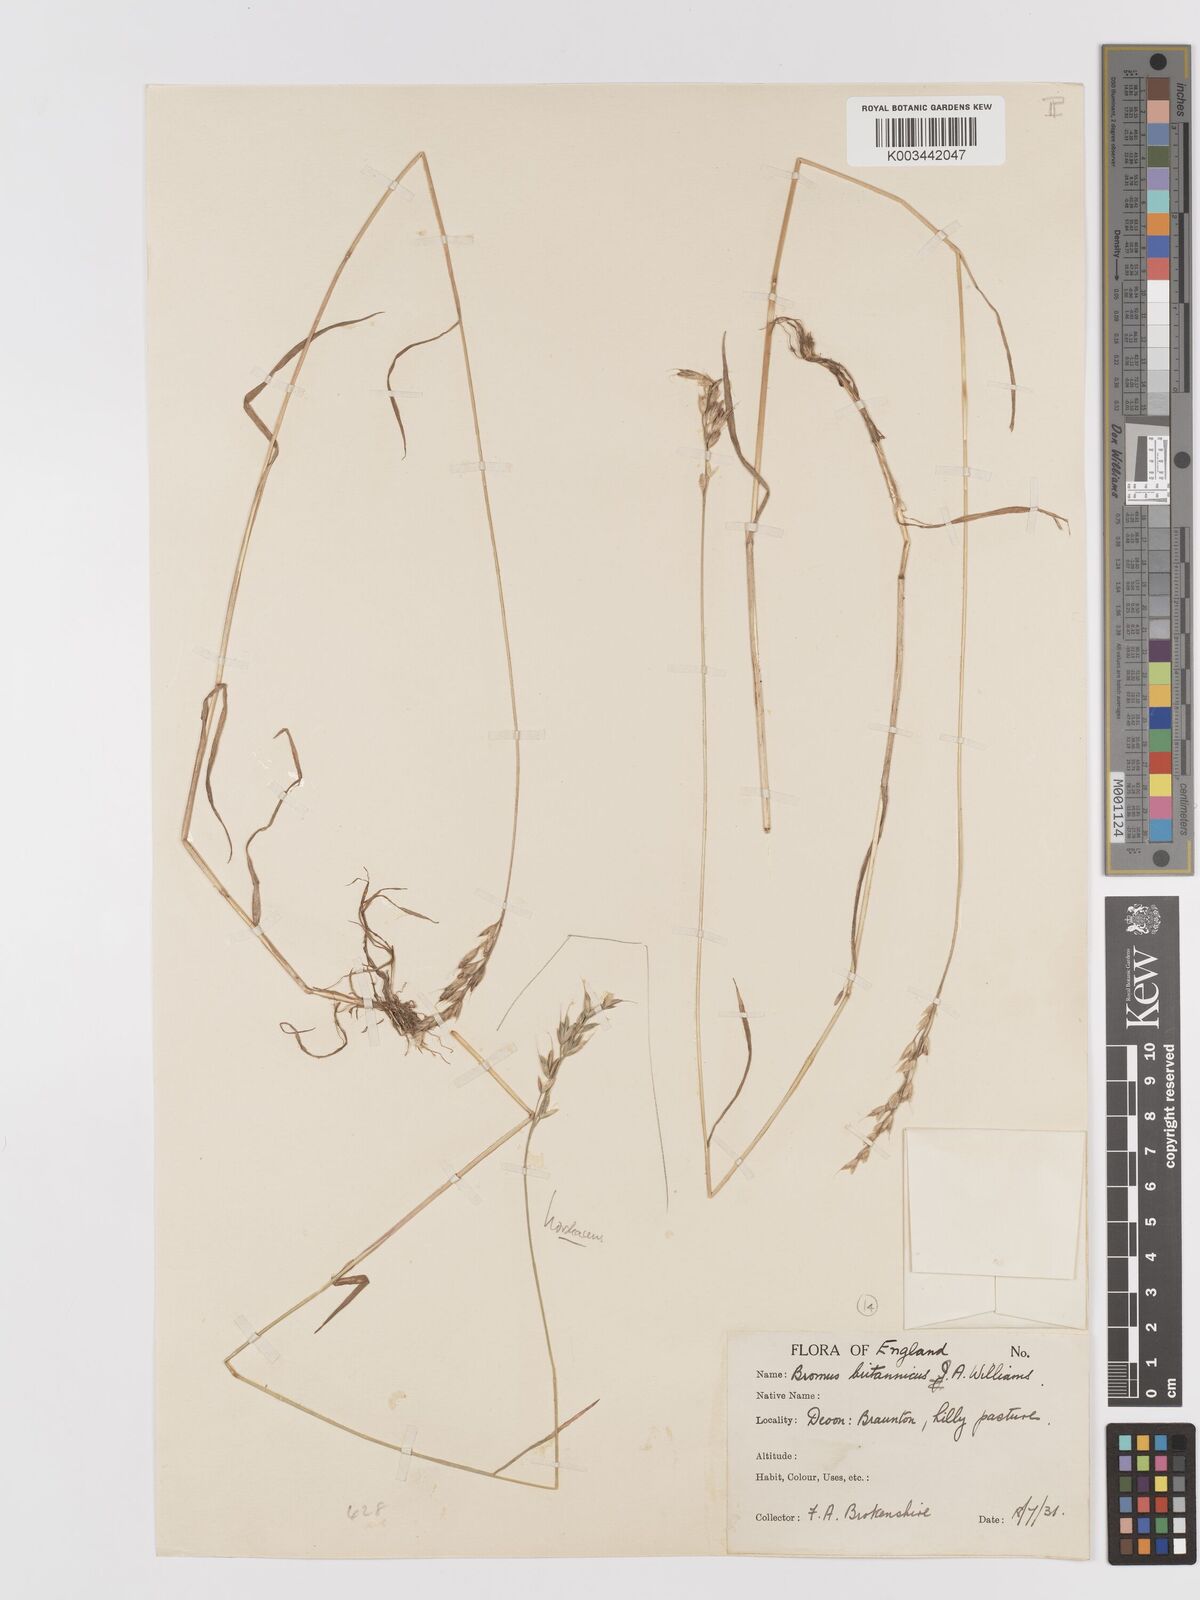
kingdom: Plantae
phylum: Tracheophyta
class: Liliopsida
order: Poales
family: Poaceae
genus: Bromus
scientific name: Bromus lepidus
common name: Slender soft-brome
